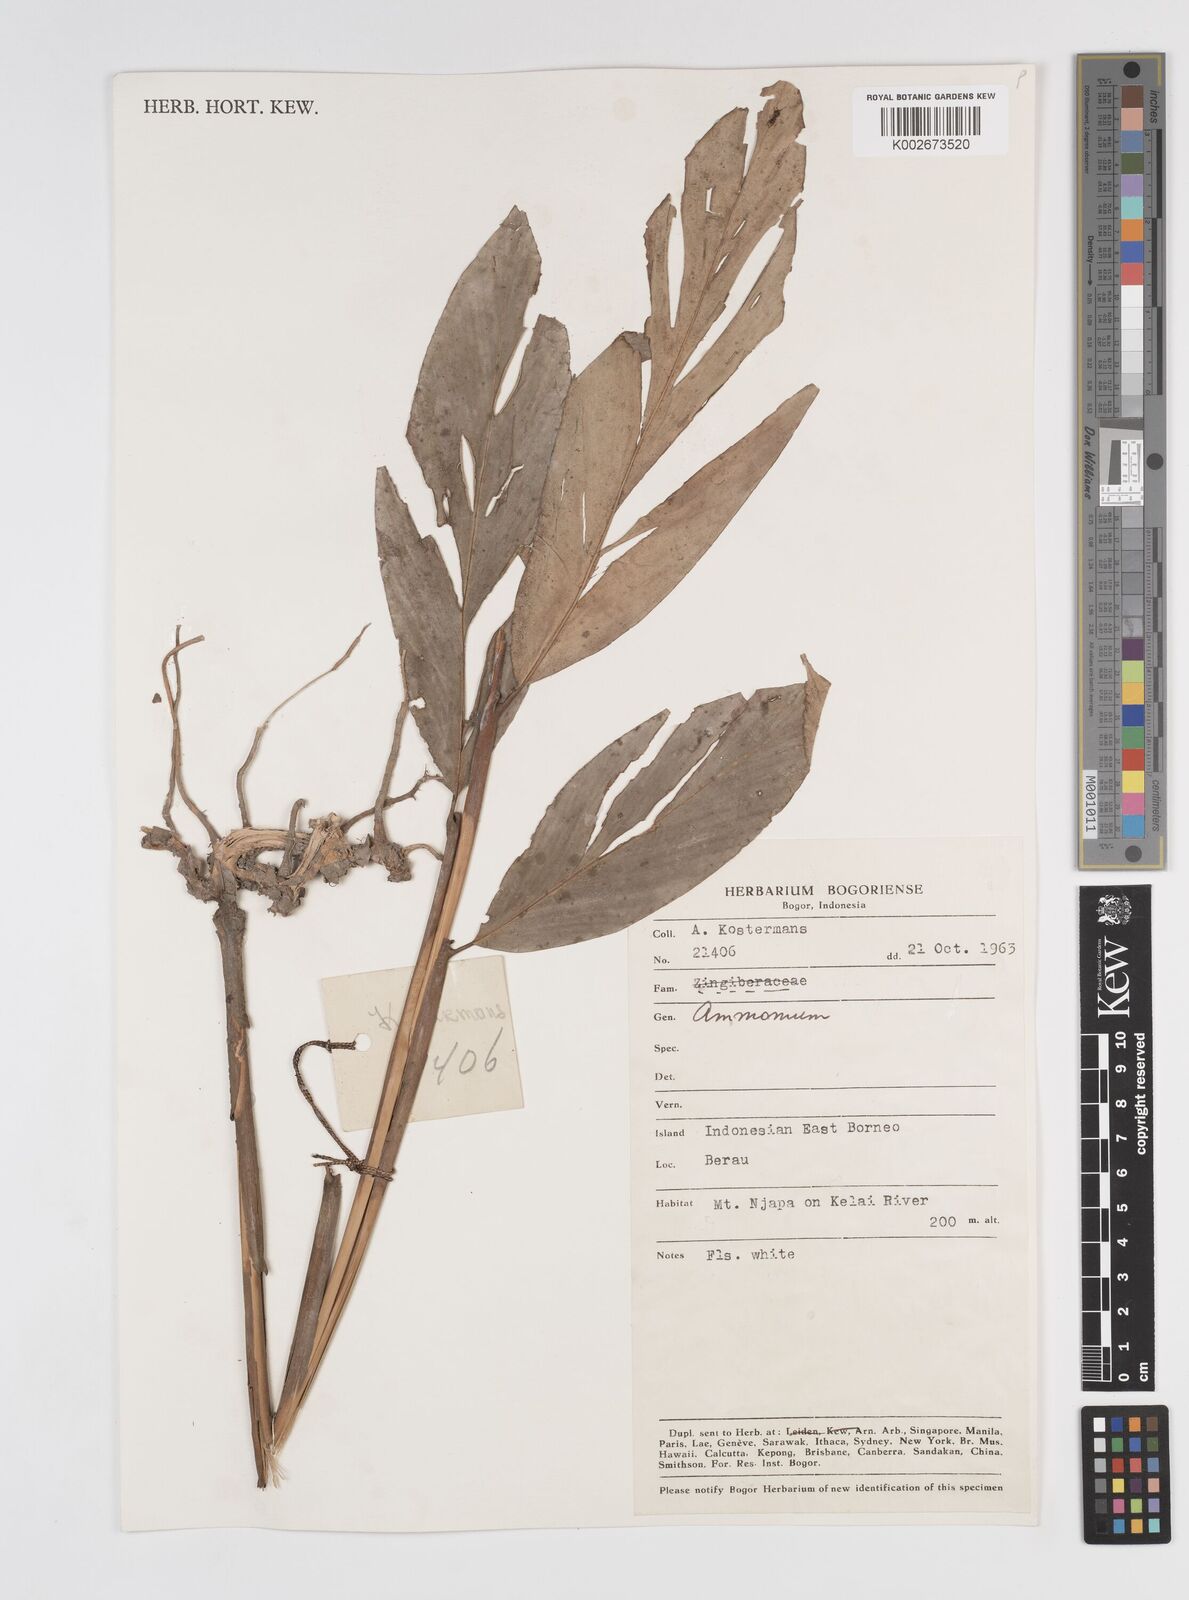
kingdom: Plantae
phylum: Tracheophyta
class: Liliopsida
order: Zingiberales
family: Zingiberaceae
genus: Amomum
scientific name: Amomum
